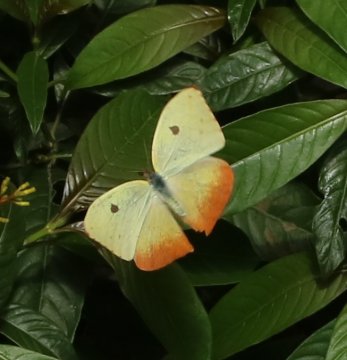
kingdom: Animalia
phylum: Arthropoda
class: Insecta
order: Lepidoptera
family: Pieridae
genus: Phoebis
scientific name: Phoebis philea
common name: Orange-barred Sulphur
